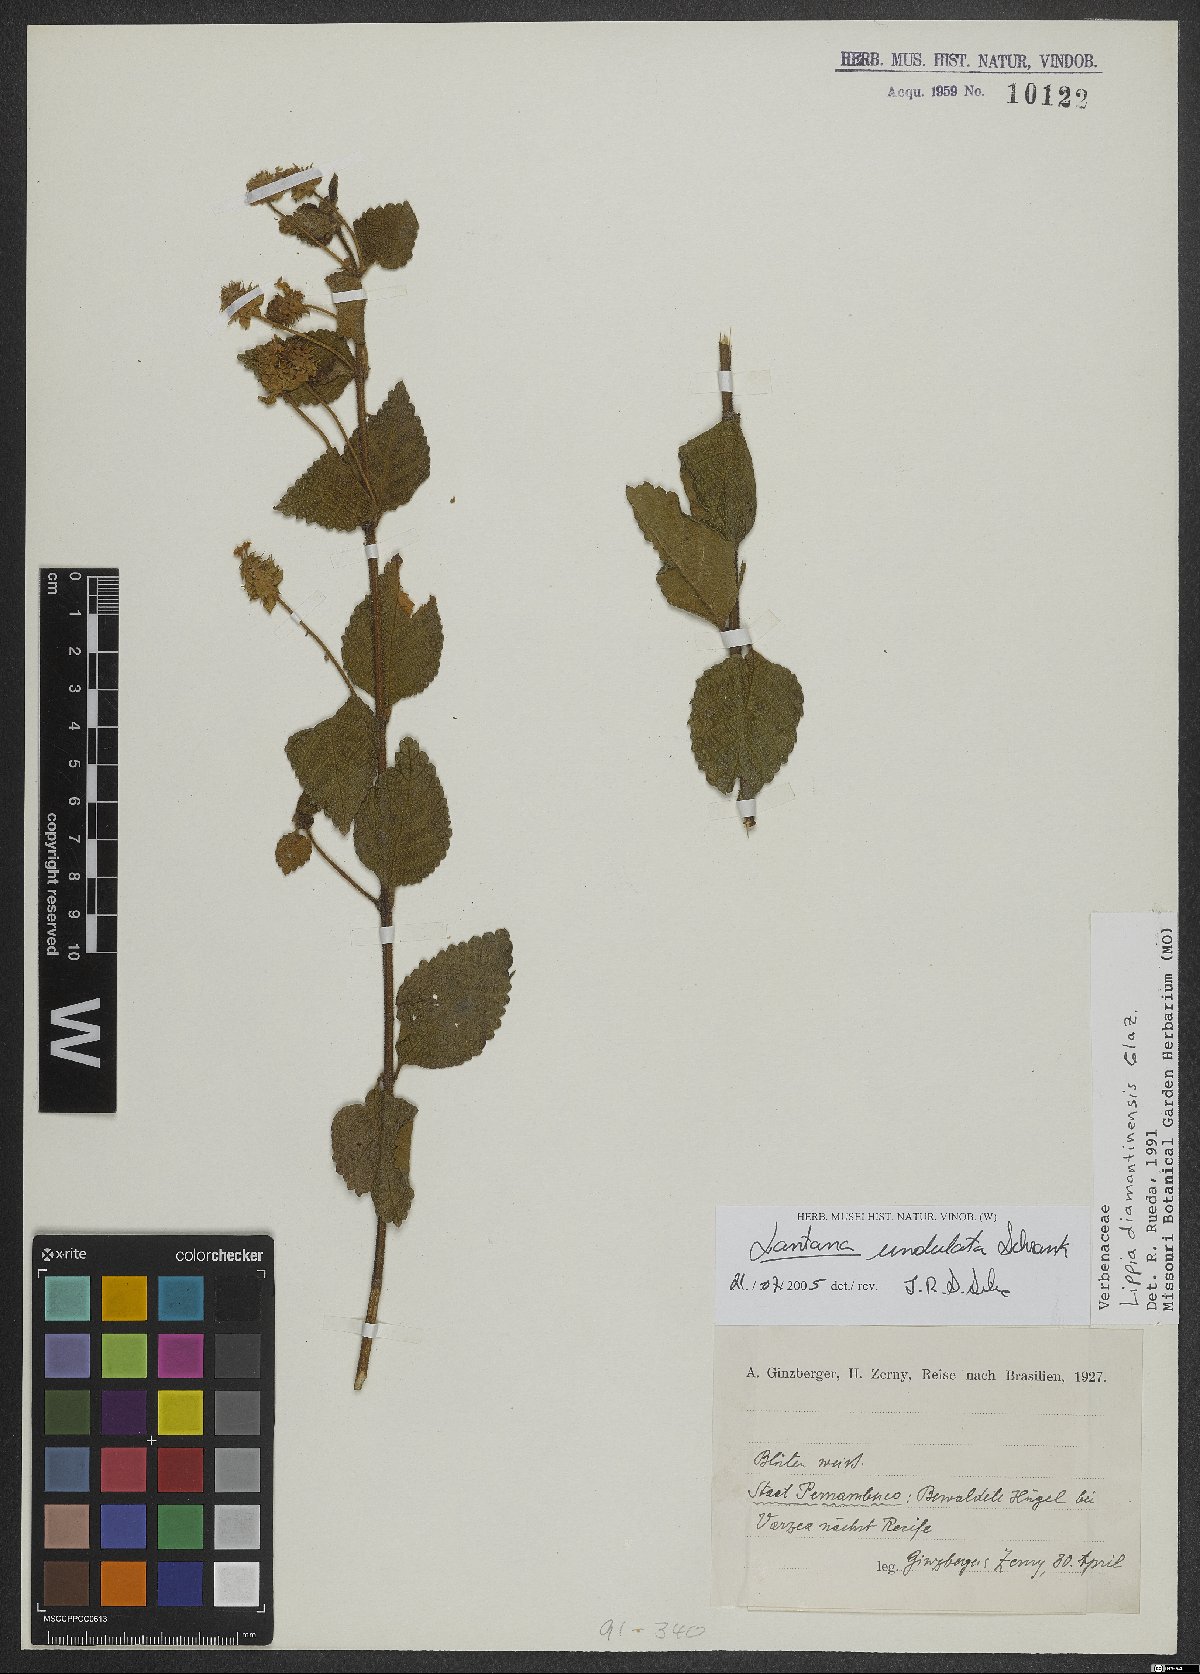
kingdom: Plantae
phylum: Tracheophyta
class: Magnoliopsida
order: Lamiales
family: Verbenaceae
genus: Lantana
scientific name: Lantana undulata
